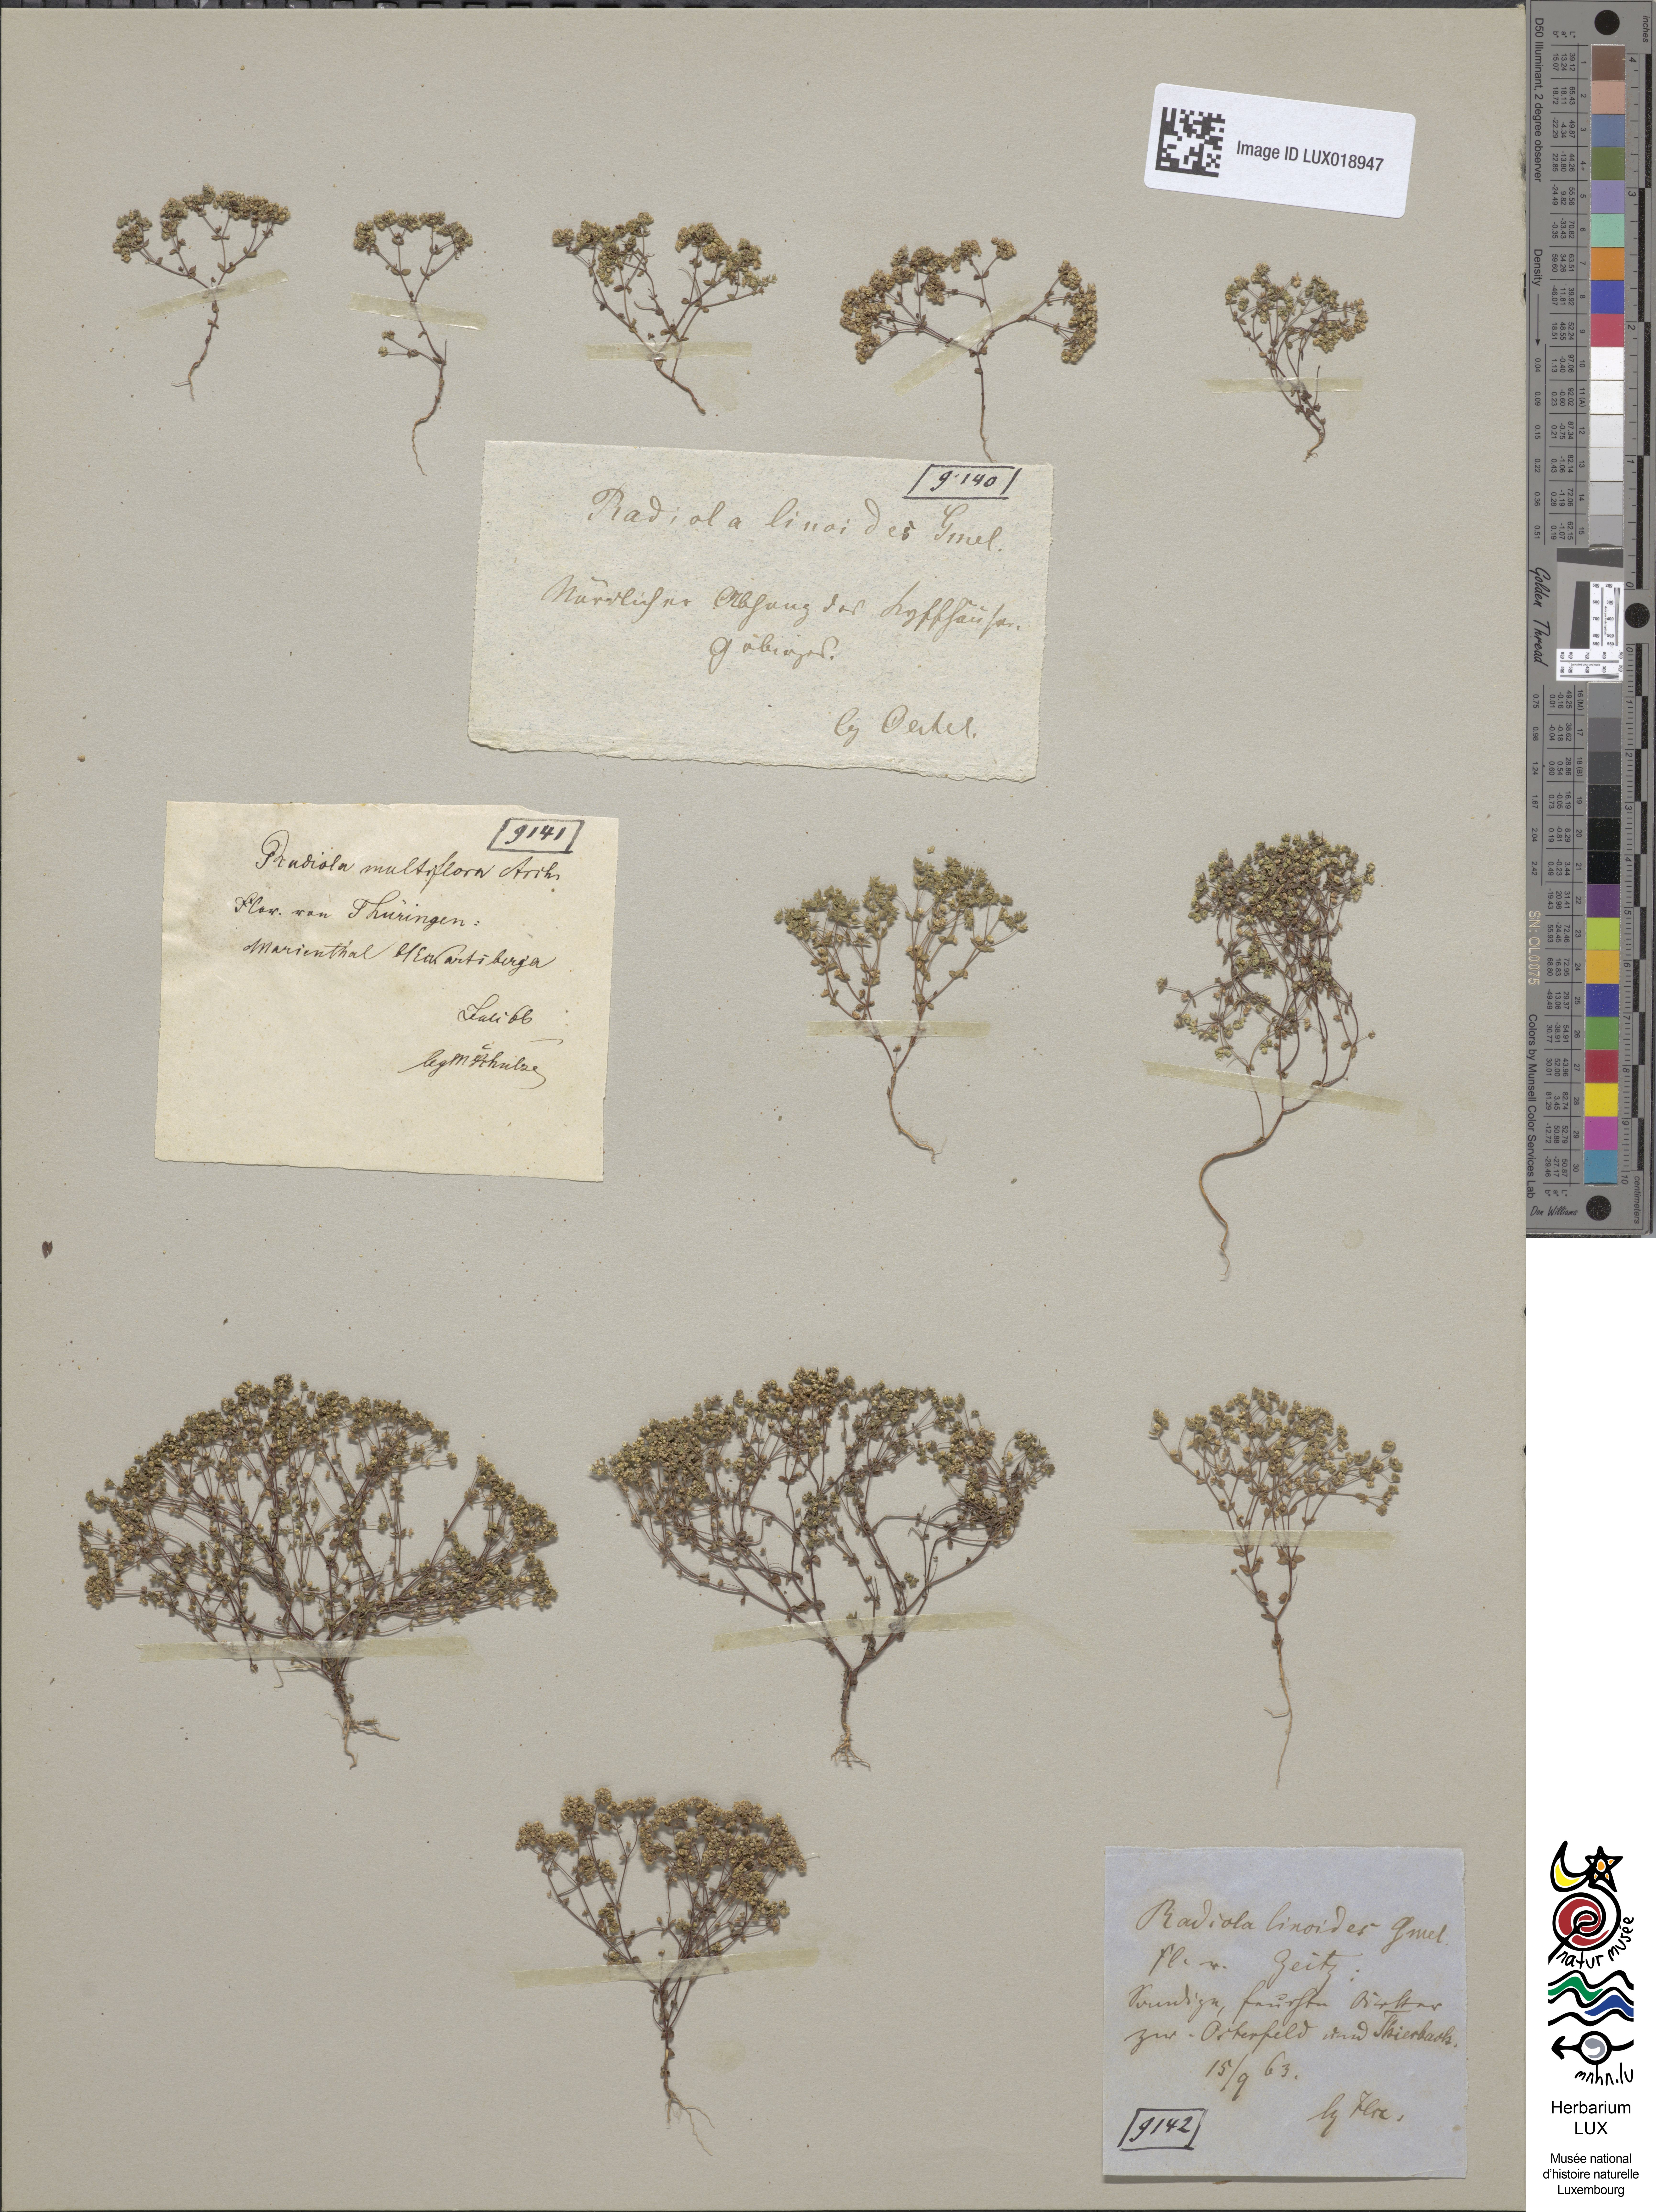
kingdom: Plantae
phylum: Tracheophyta
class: Magnoliopsida
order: Malpighiales
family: Linaceae
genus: Radiola
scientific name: Radiola linoides
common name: Allseed
